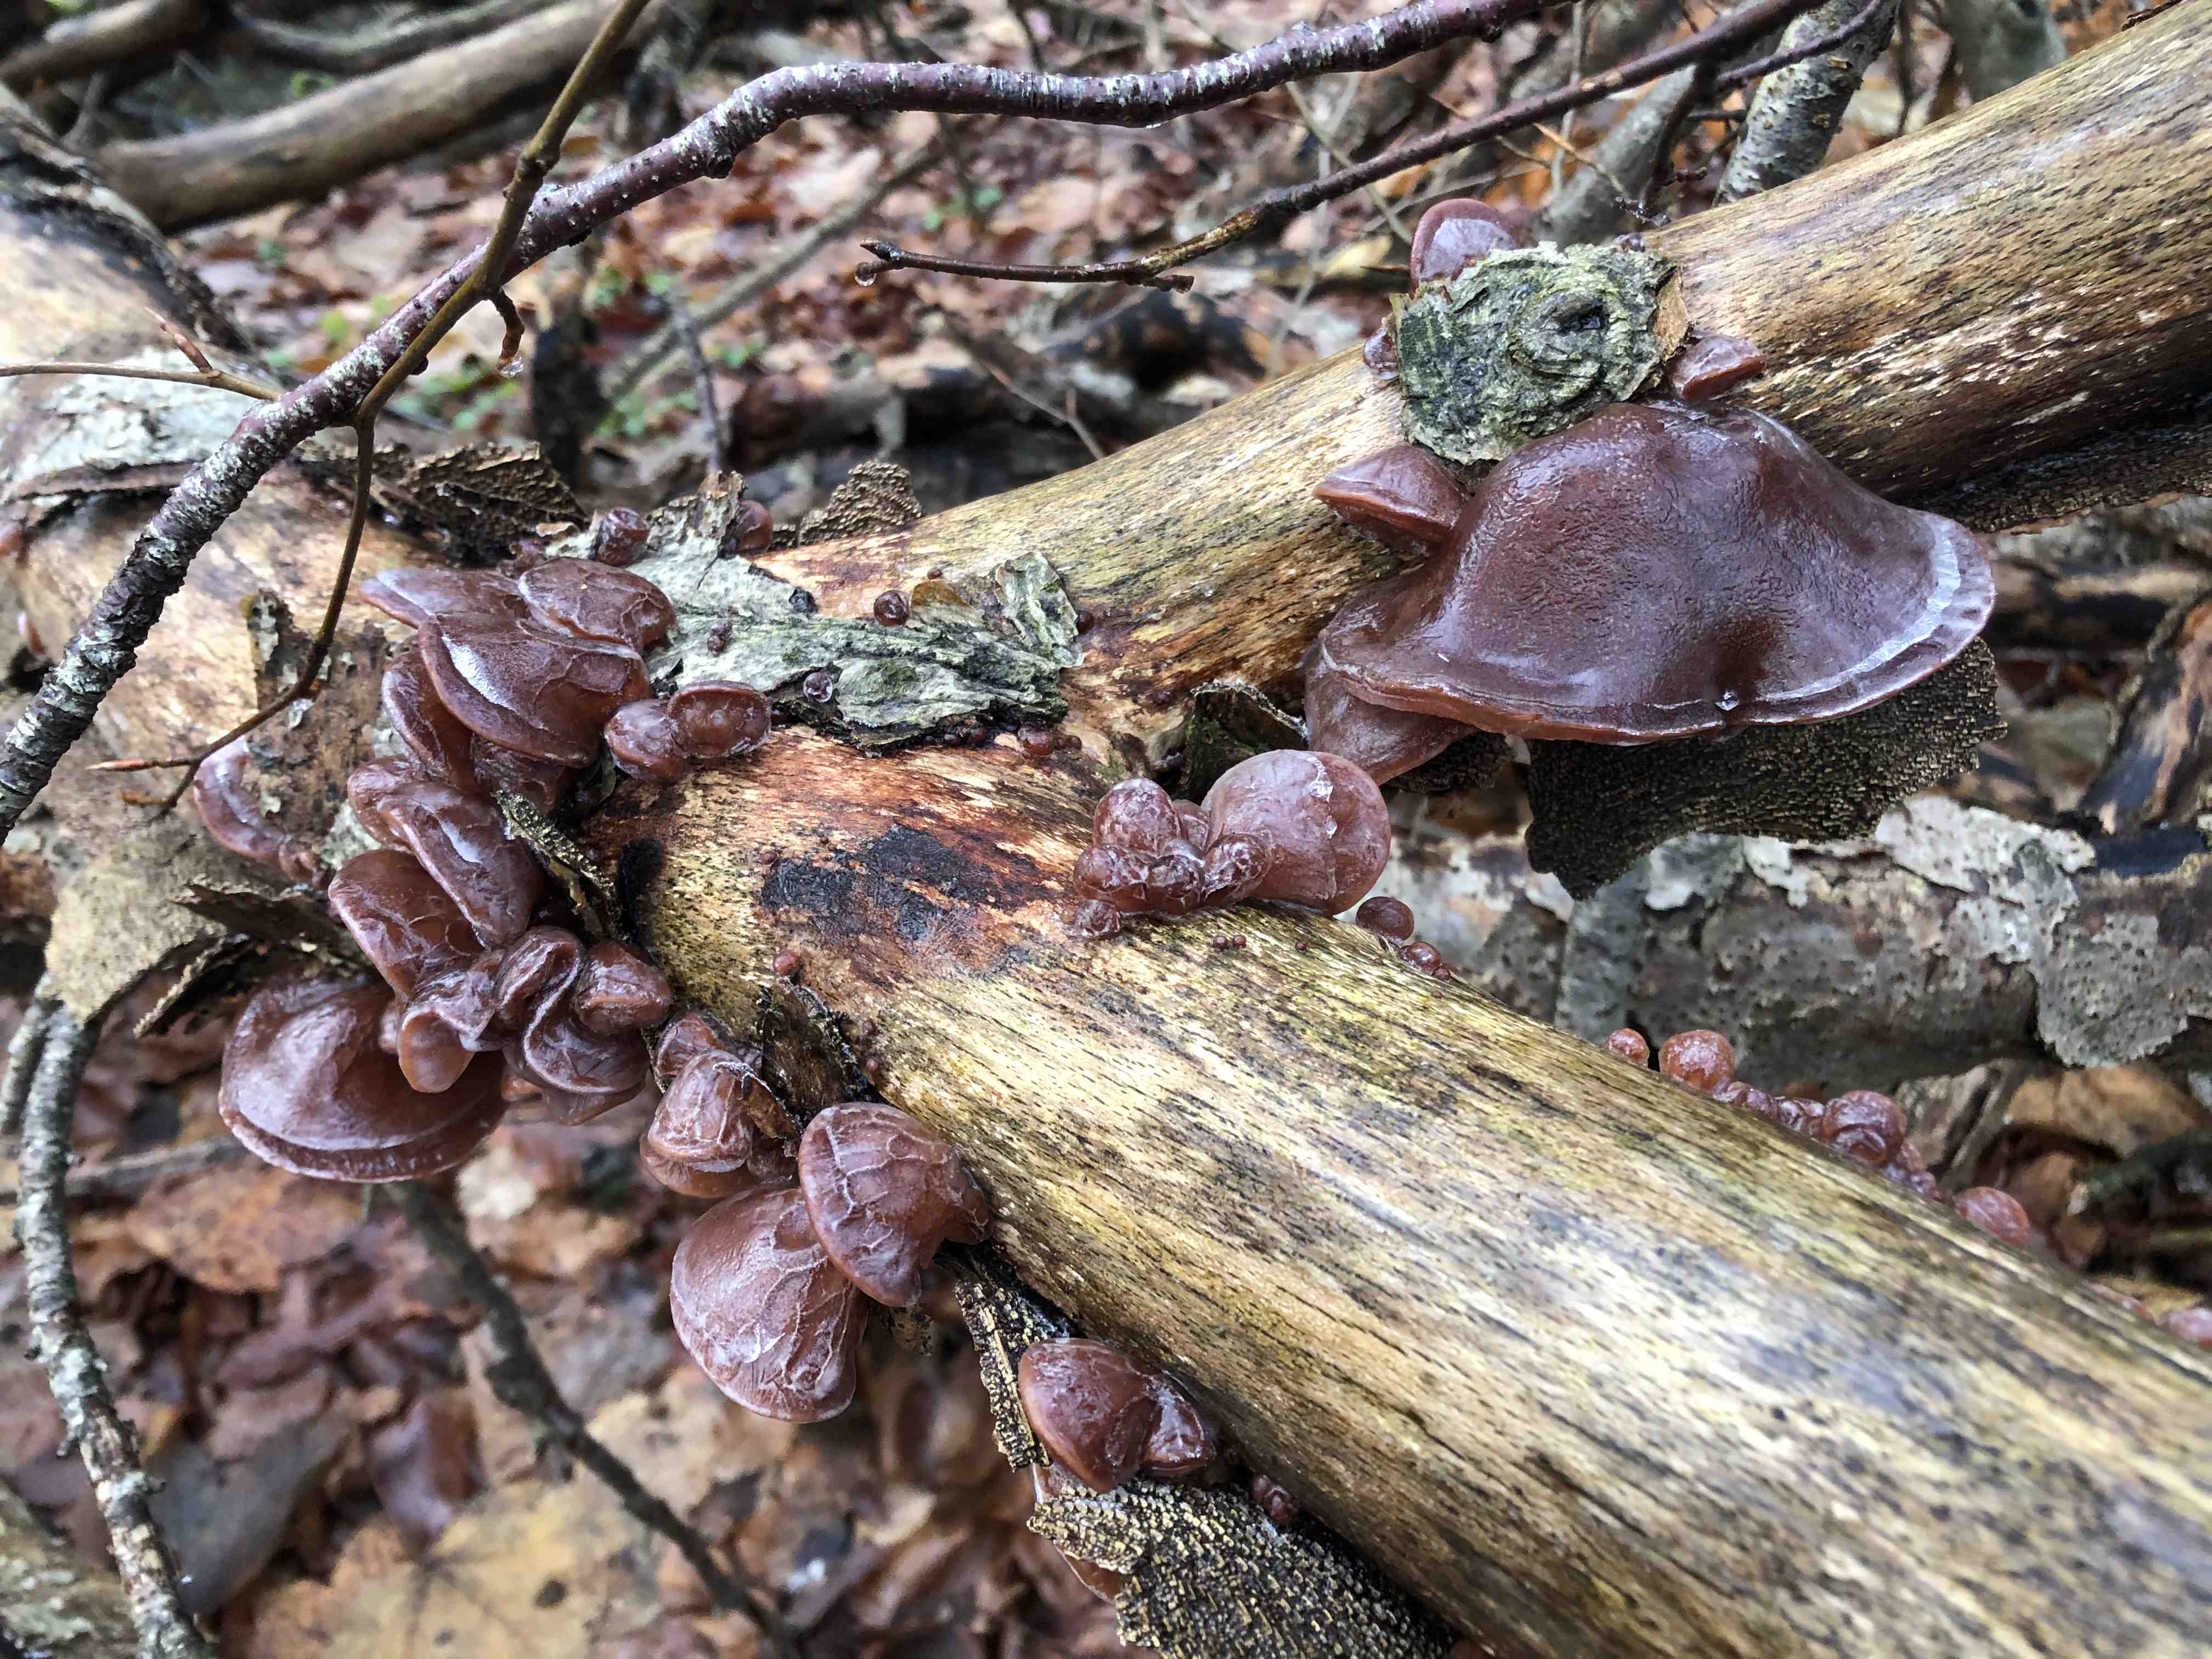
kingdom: Fungi
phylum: Basidiomycota
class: Agaricomycetes
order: Auriculariales
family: Auriculariaceae
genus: Auricularia
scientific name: Auricularia auricula-judae
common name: almindelig judasøre
